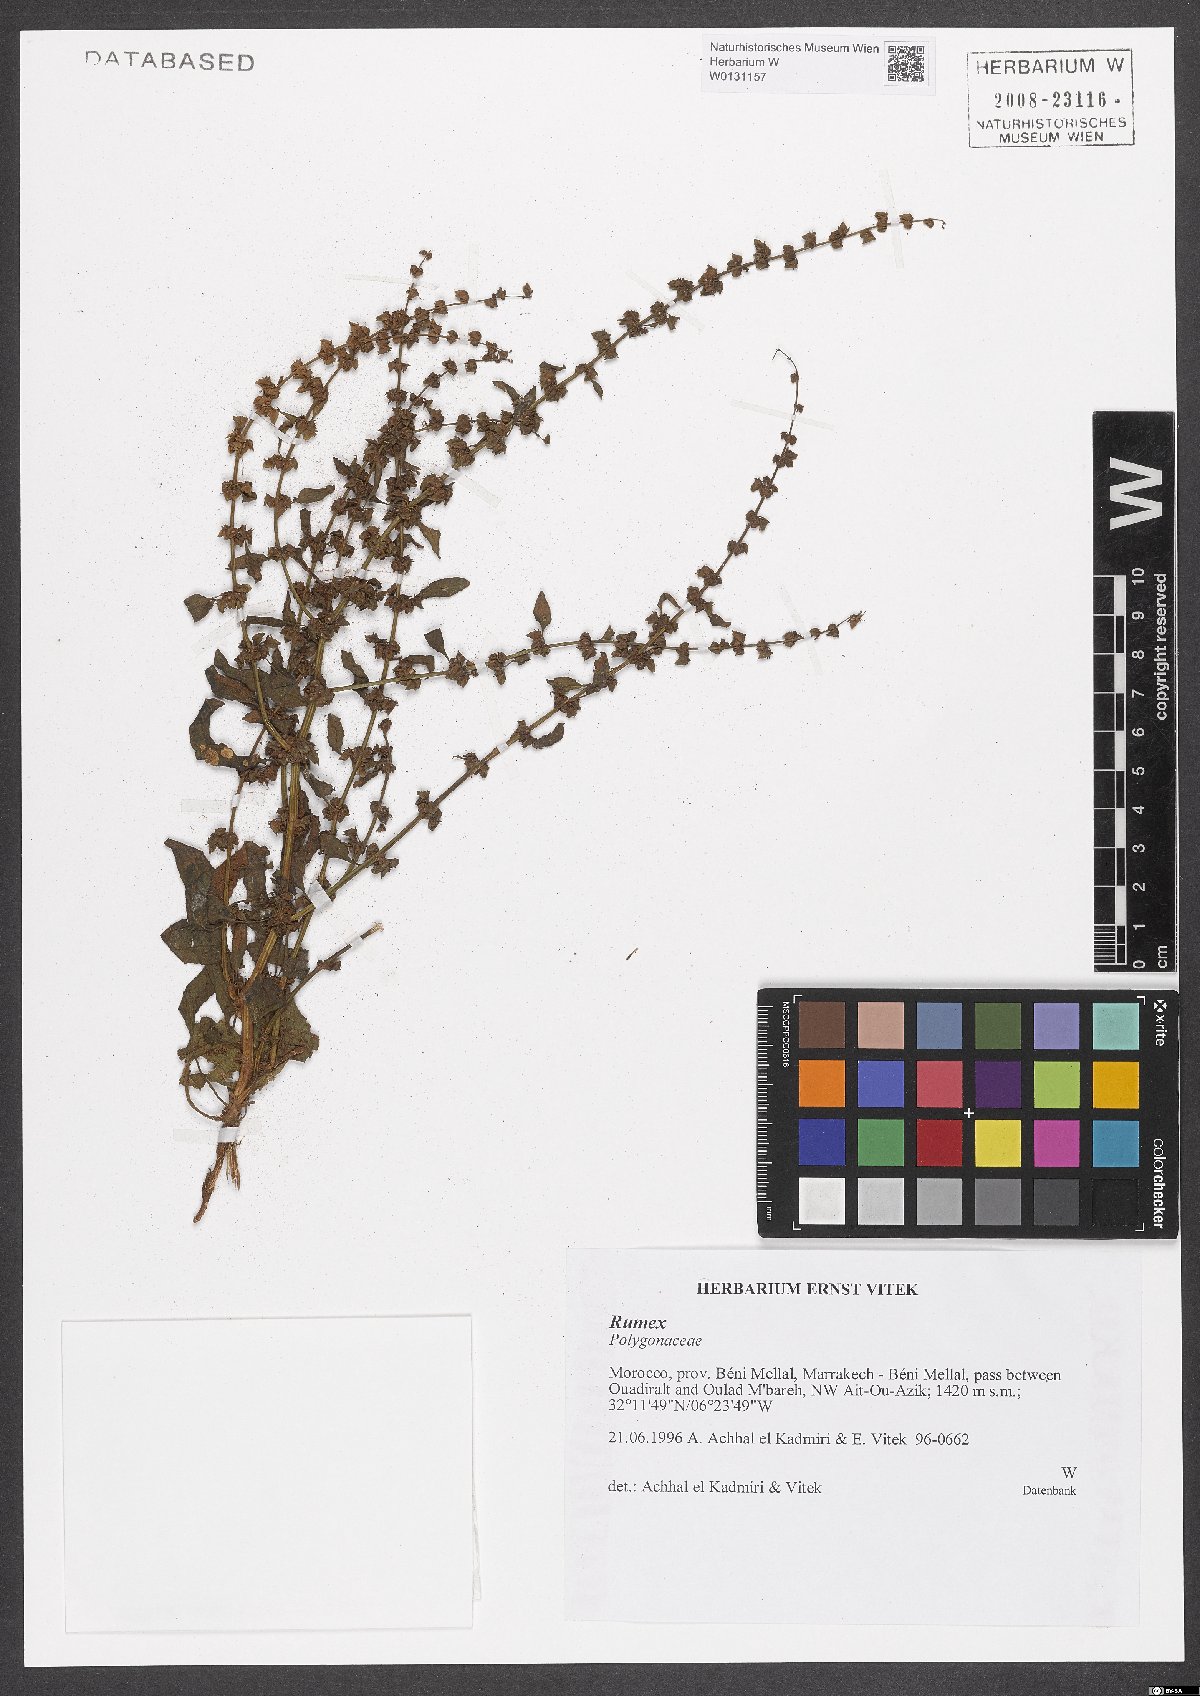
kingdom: Plantae
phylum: Tracheophyta
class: Magnoliopsida
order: Caryophyllales
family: Polygonaceae
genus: Rumex
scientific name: Rumex
